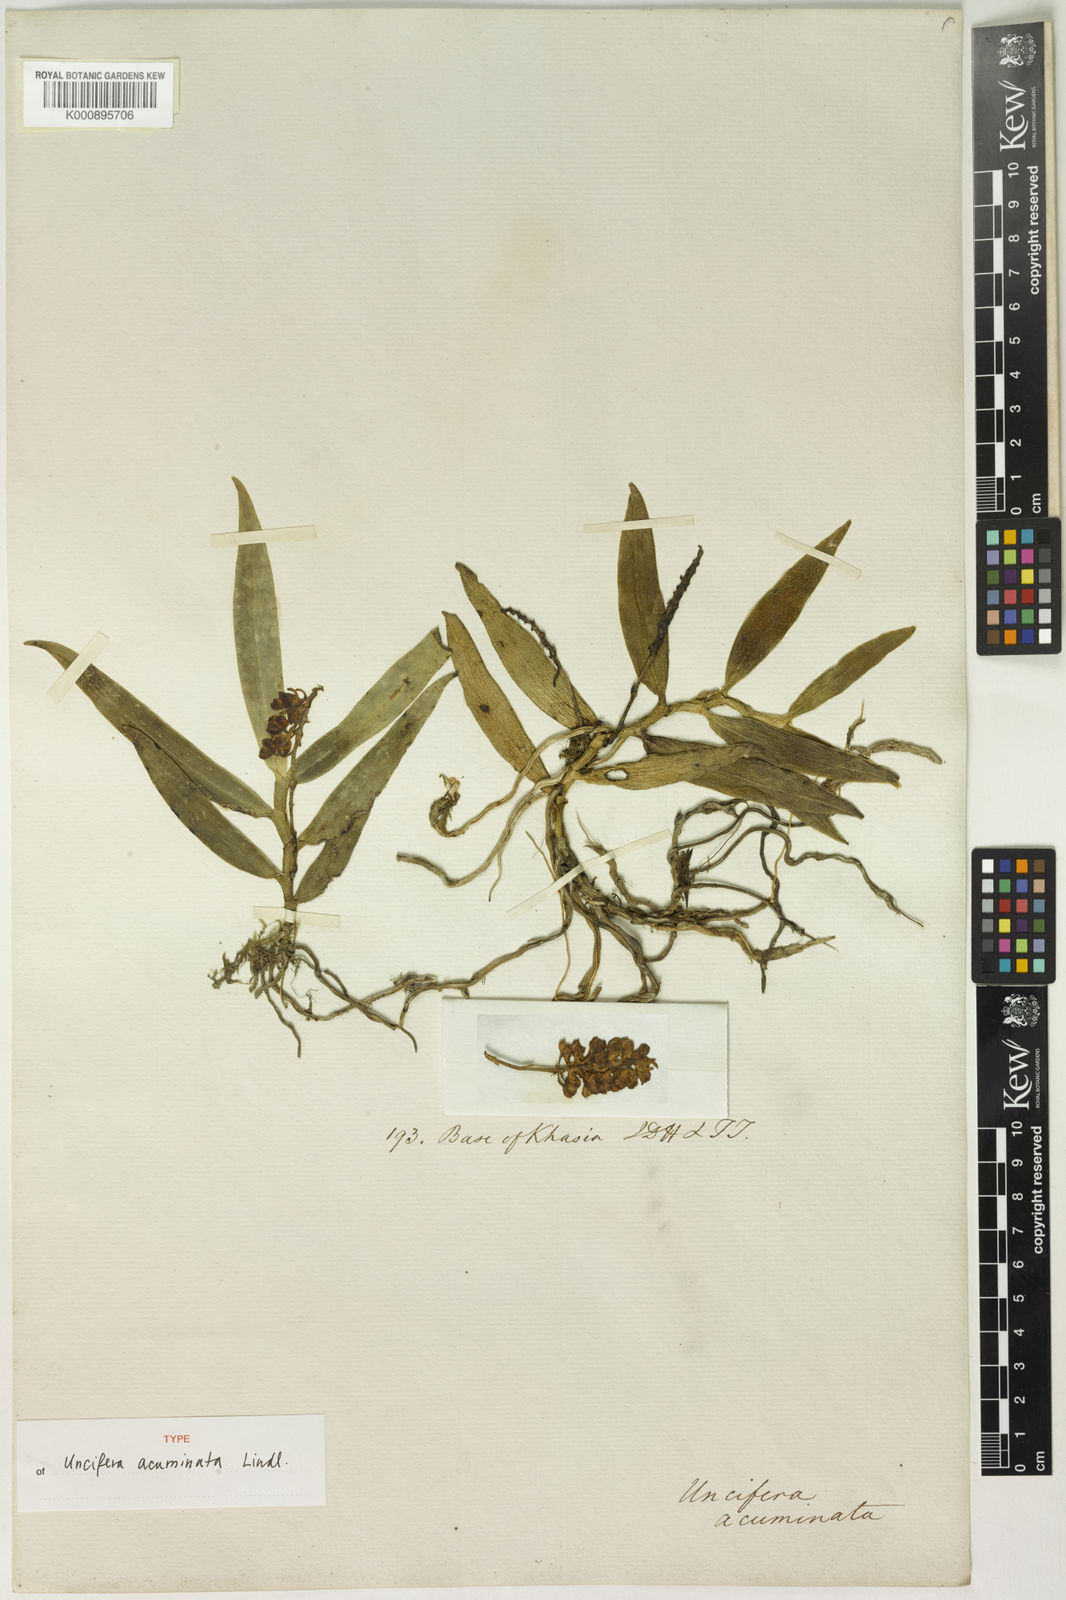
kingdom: Plantae
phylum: Tracheophyta
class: Liliopsida
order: Asparagales
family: Orchidaceae
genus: Uncifera
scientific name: Uncifera acuminata
